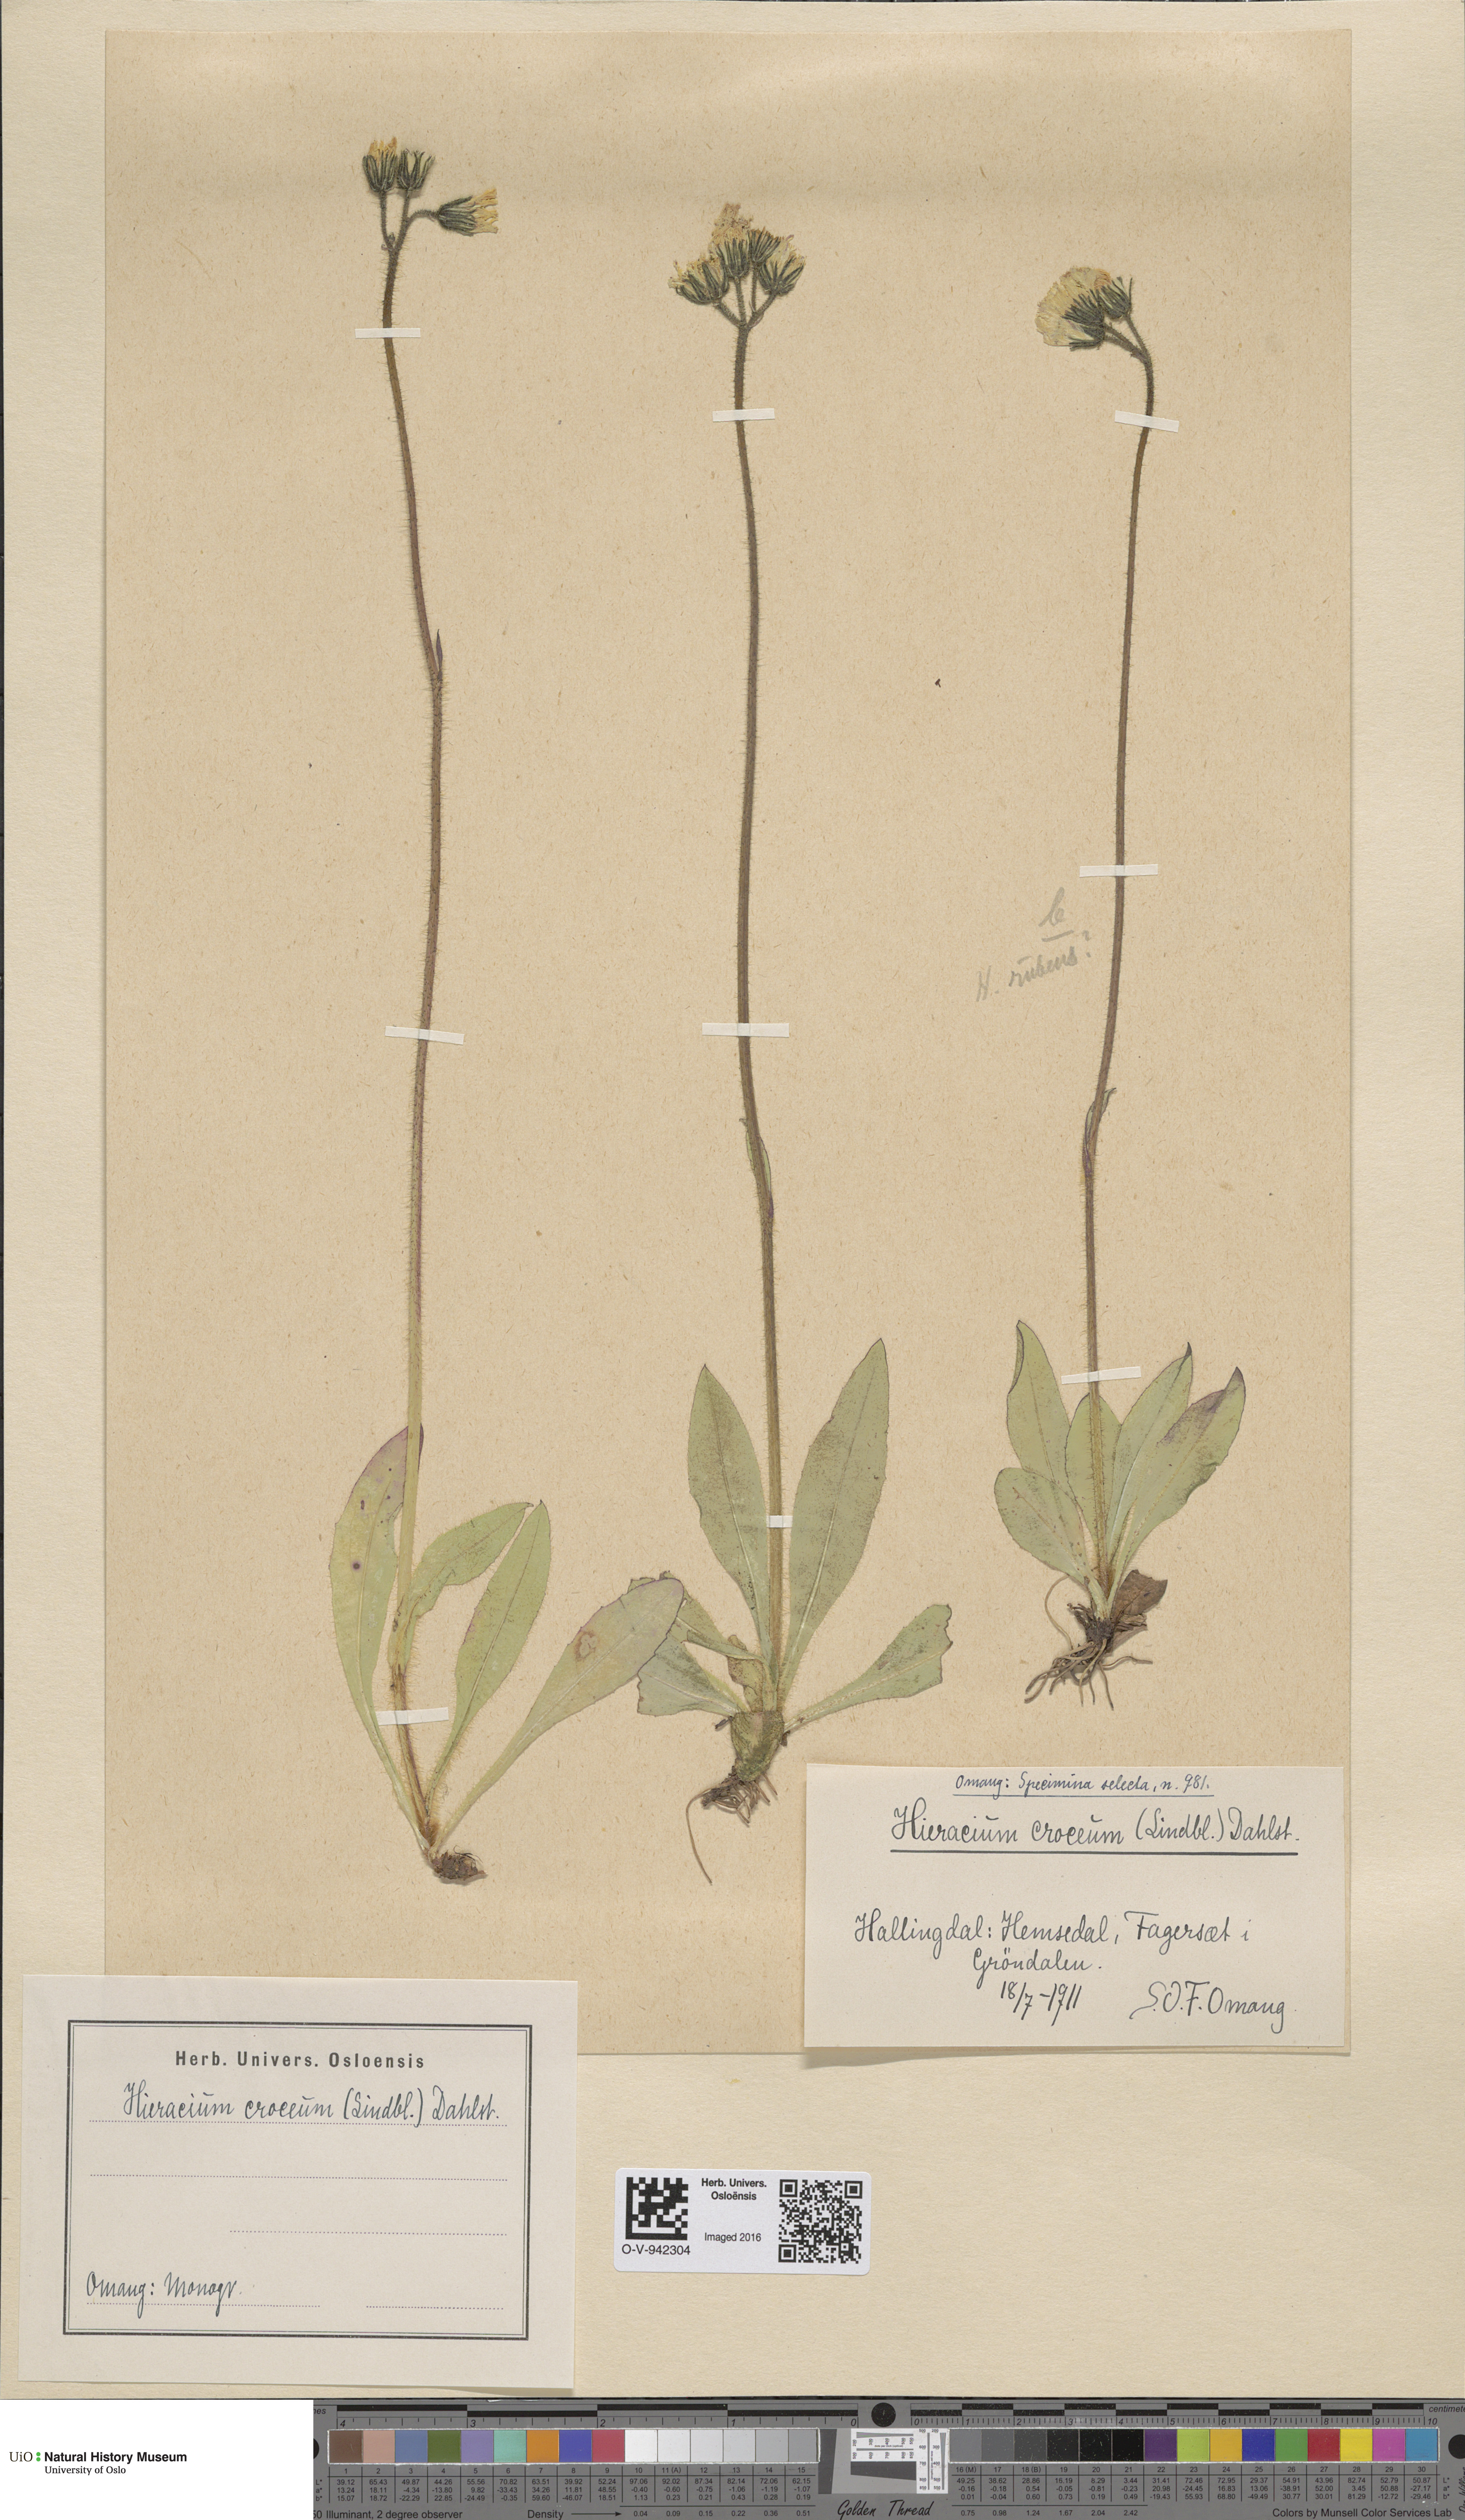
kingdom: Plantae
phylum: Tracheophyta
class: Magnoliopsida
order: Asterales
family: Asteraceae
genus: Pilosella
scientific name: Pilosella fuscoatra
